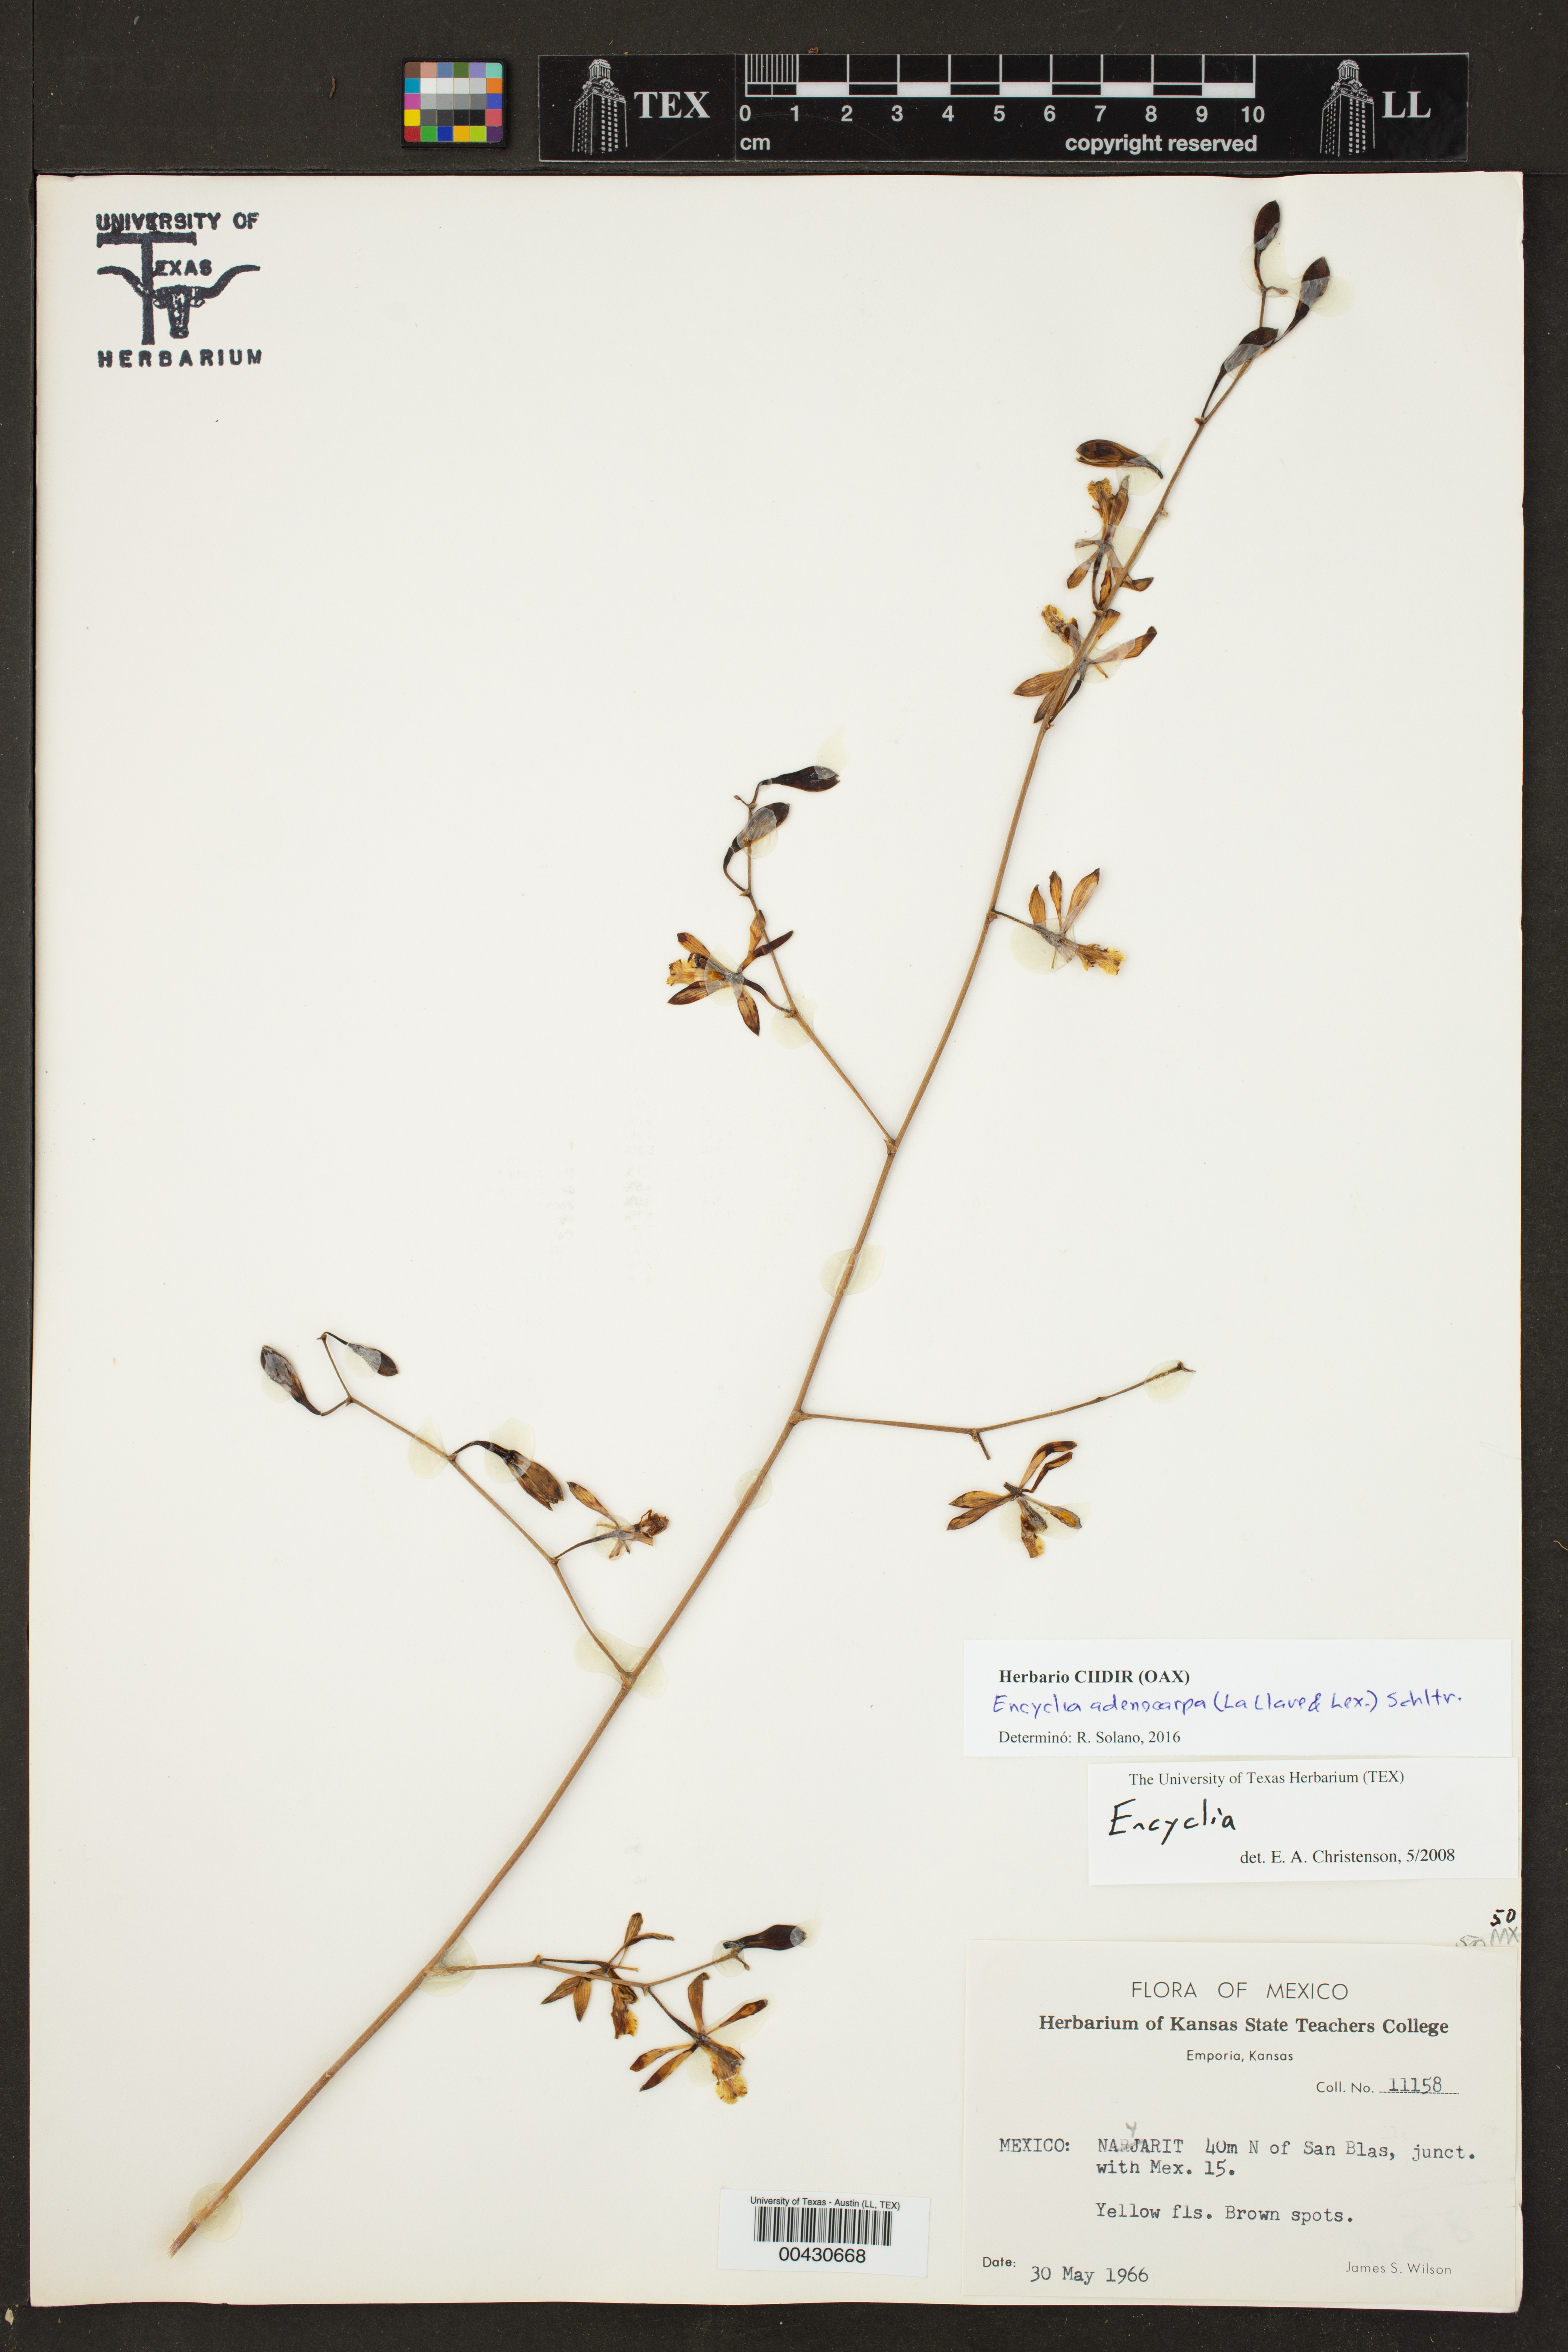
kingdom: Plantae
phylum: Tracheophyta
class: Liliopsida
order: Asparagales
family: Orchidaceae
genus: Encyclia
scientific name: Encyclia adenocarpos
